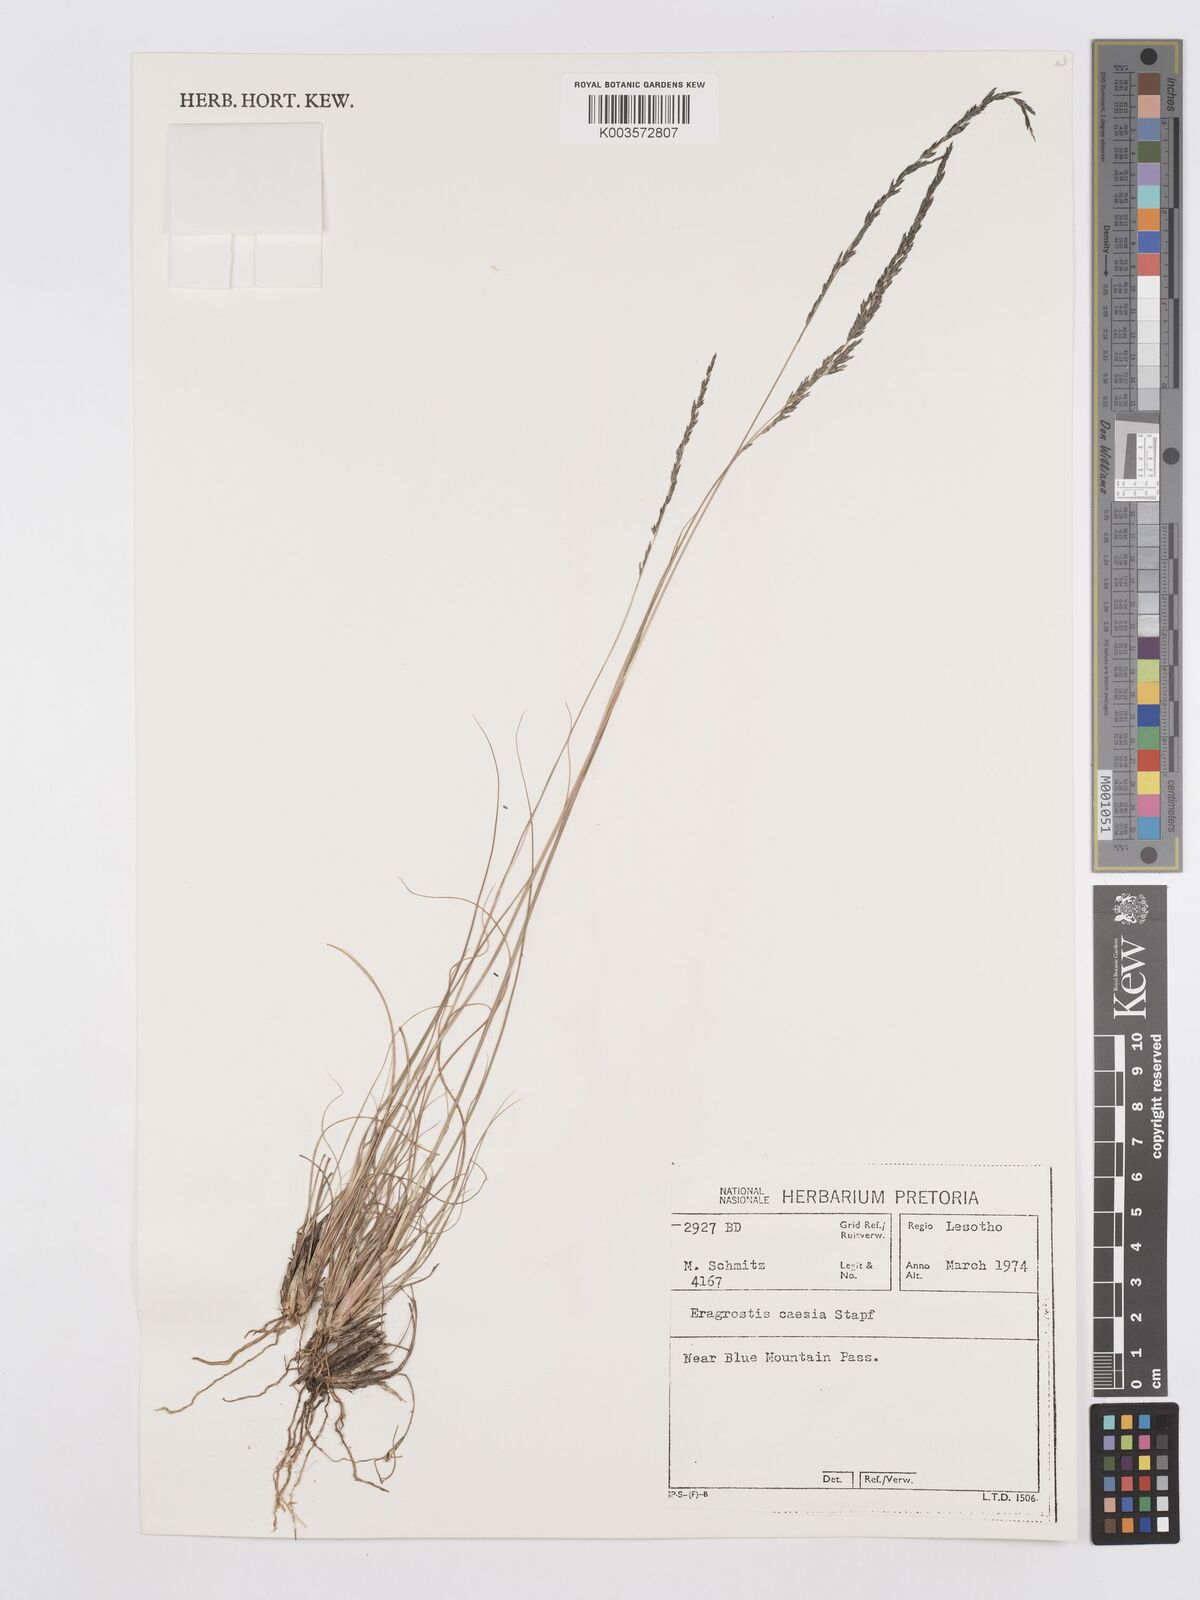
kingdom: Plantae
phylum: Tracheophyta
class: Liliopsida
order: Poales
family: Poaceae
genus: Eragrostis
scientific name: Eragrostis caesia
